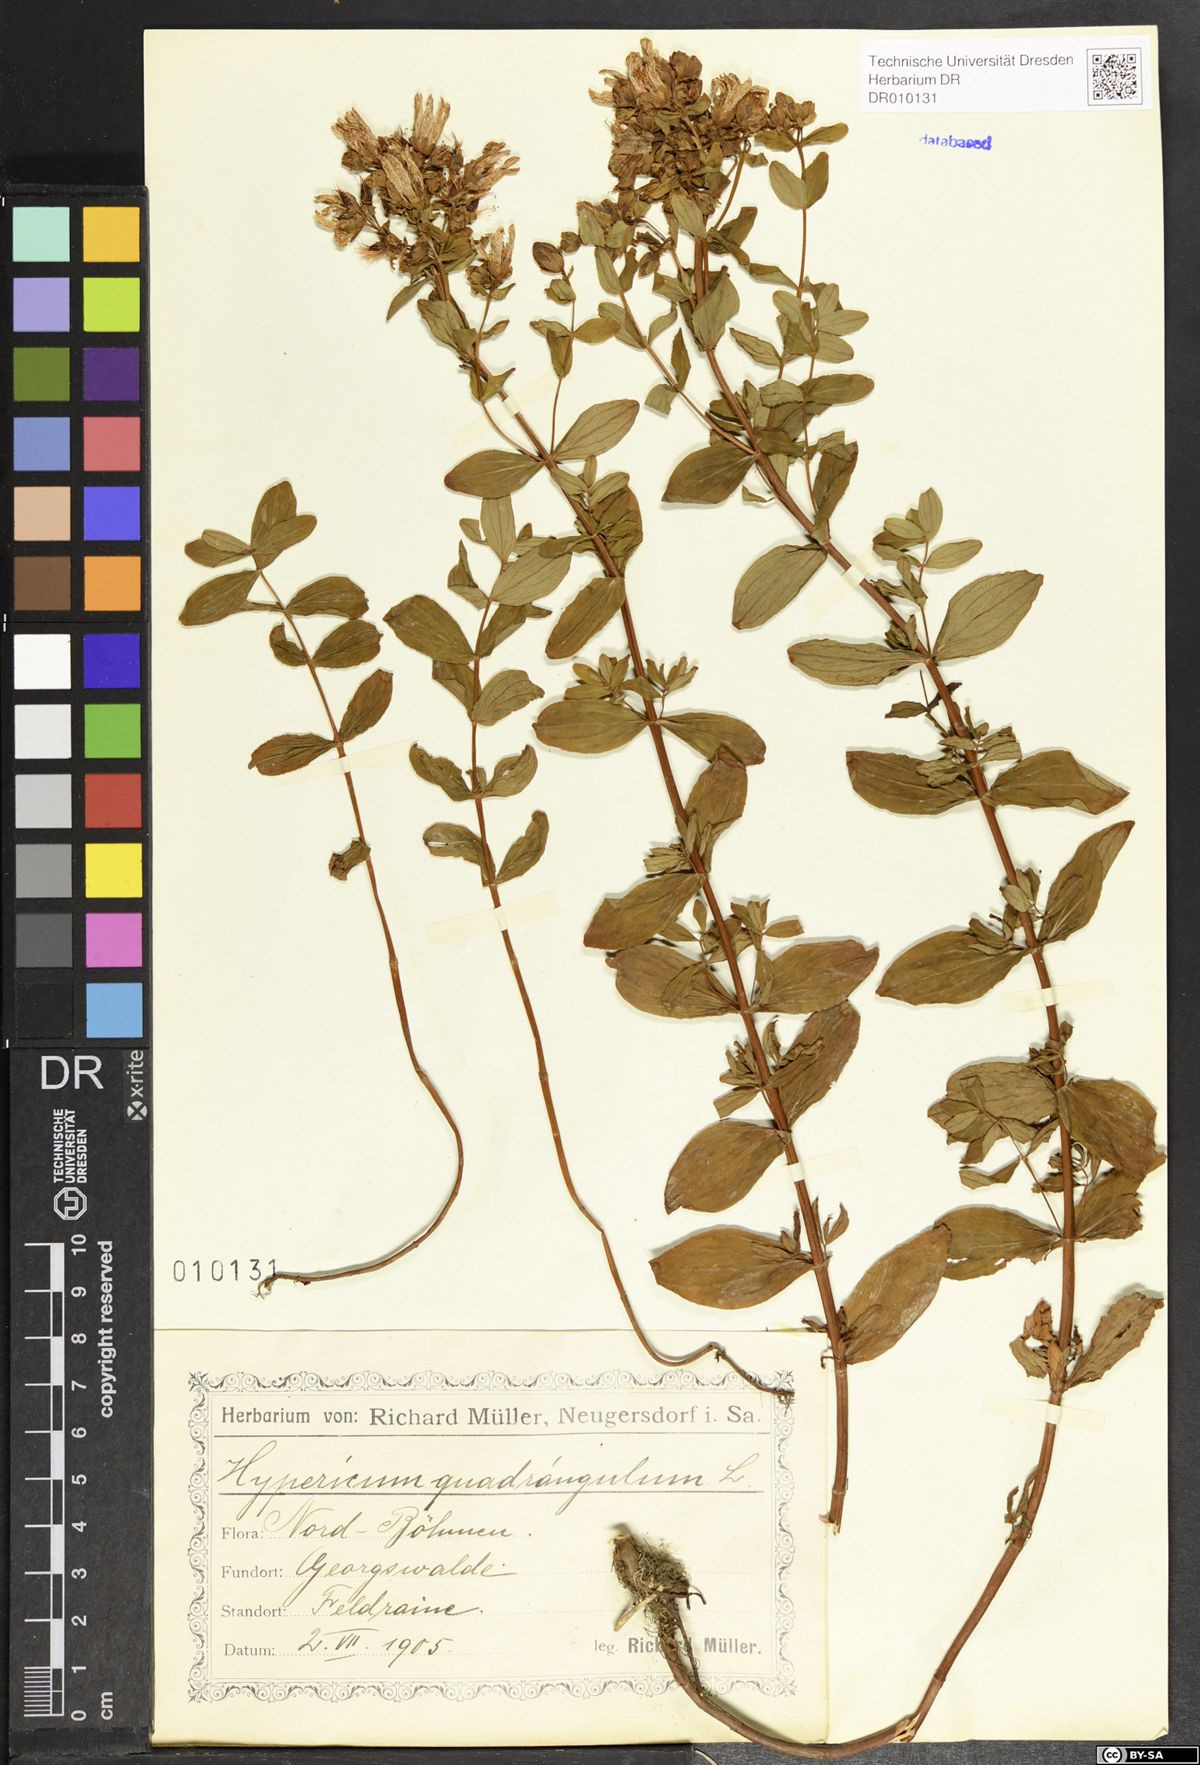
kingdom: Plantae
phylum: Tracheophyta
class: Magnoliopsida
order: Malpighiales
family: Hypericaceae
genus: Hypericum
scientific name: Hypericum maculatum
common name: Imperforate st. john's-wort
